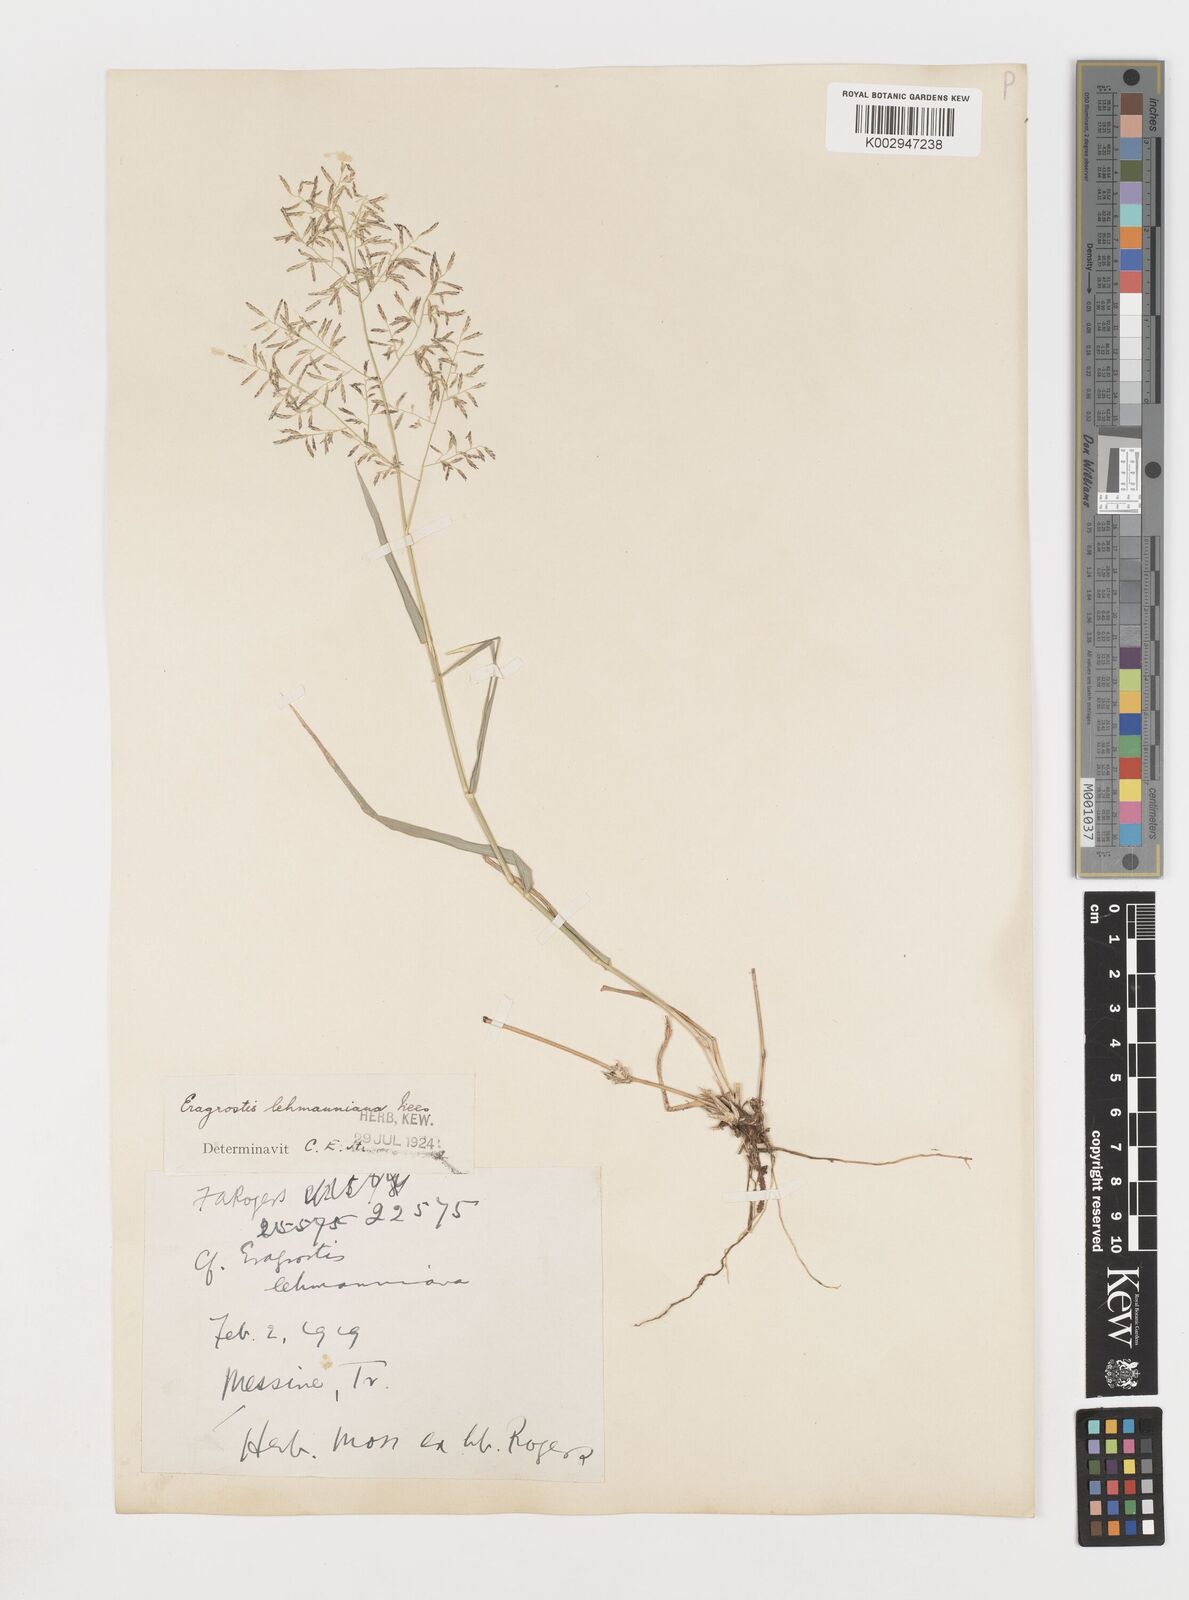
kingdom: Plantae
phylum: Tracheophyta
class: Liliopsida
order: Poales
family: Poaceae
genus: Eragrostis
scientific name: Eragrostis
